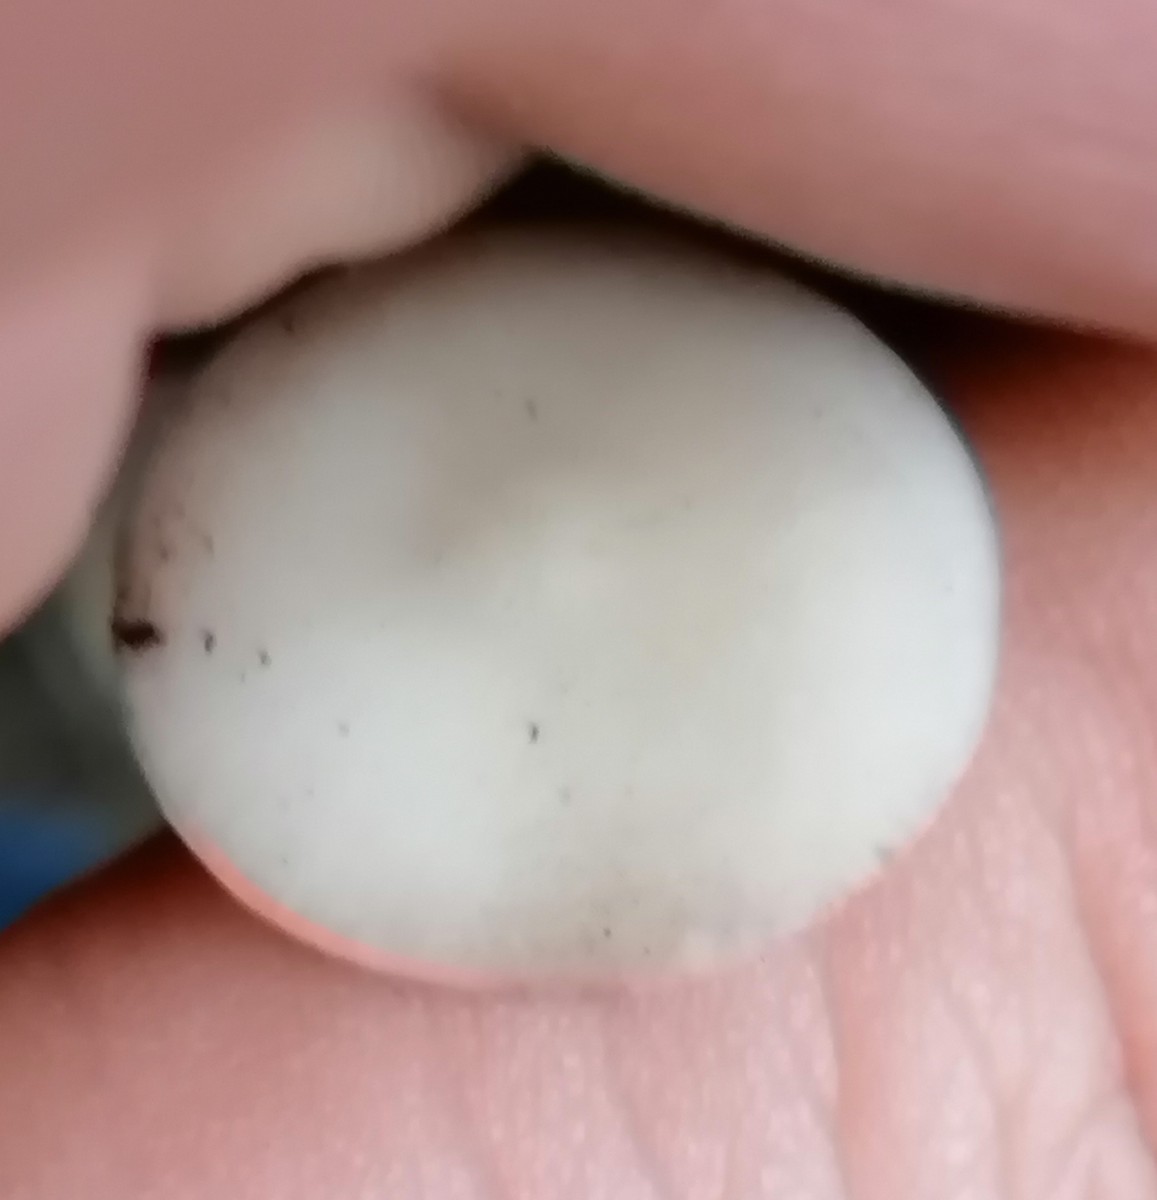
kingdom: Fungi
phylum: Basidiomycota
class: Agaricomycetes
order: Agaricales
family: Physalacriaceae
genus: Strobilurus
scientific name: Strobilurus esculentus
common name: gran-koglehat
